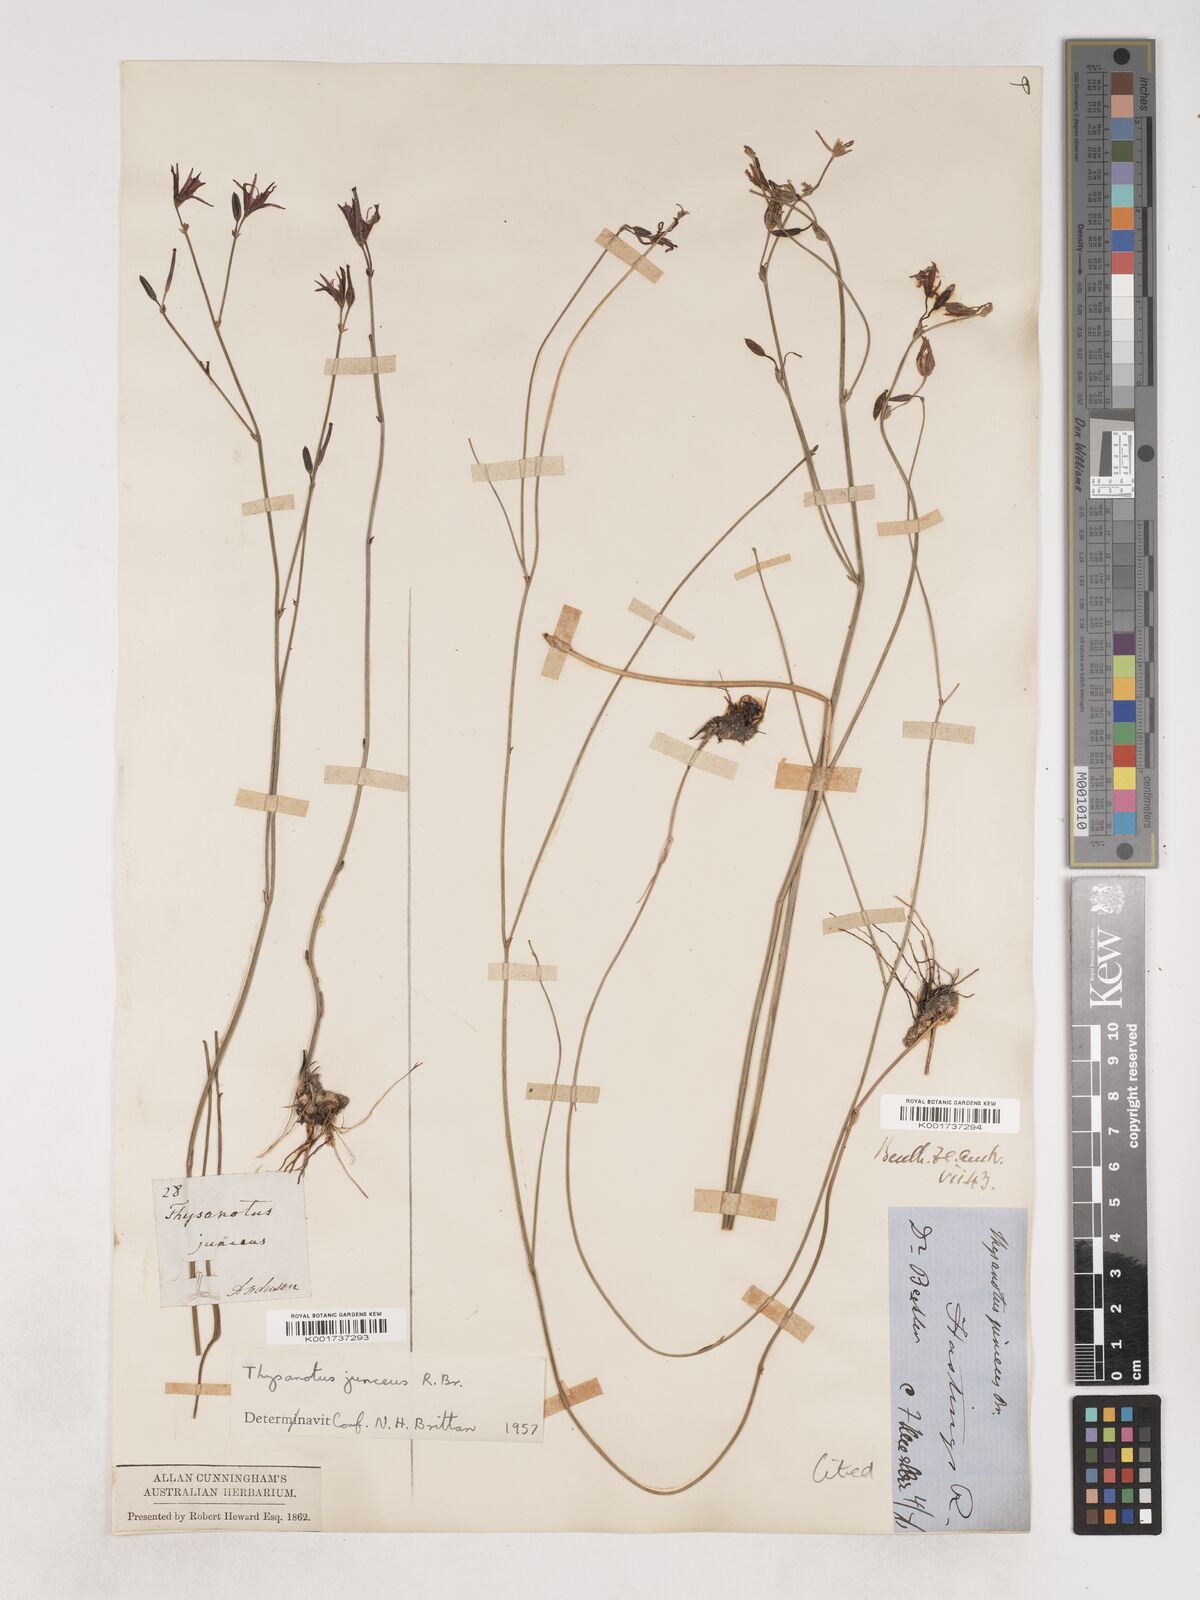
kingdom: Plantae
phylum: Tracheophyta
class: Liliopsida
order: Asparagales
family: Asparagaceae
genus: Thysanotus
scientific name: Thysanotus juncifolius
